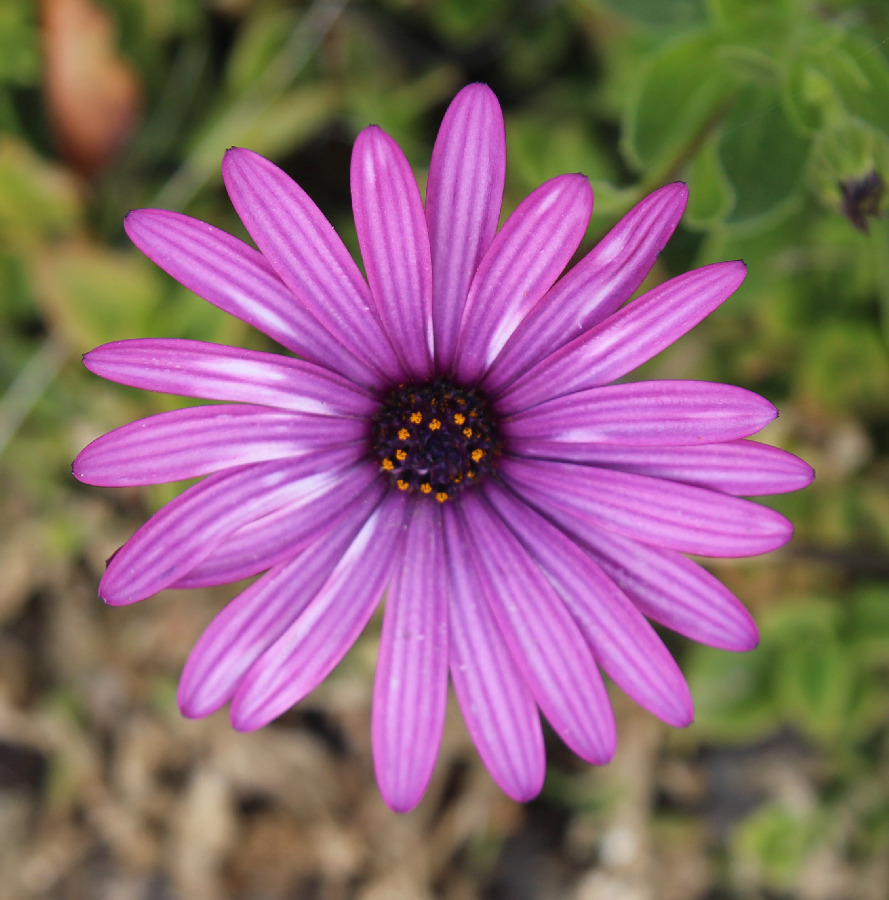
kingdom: Plantae
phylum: Tracheophyta
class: Magnoliopsida
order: Asterales
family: Asteraceae
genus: Dimorphotheca
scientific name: Dimorphotheca ecklonis
